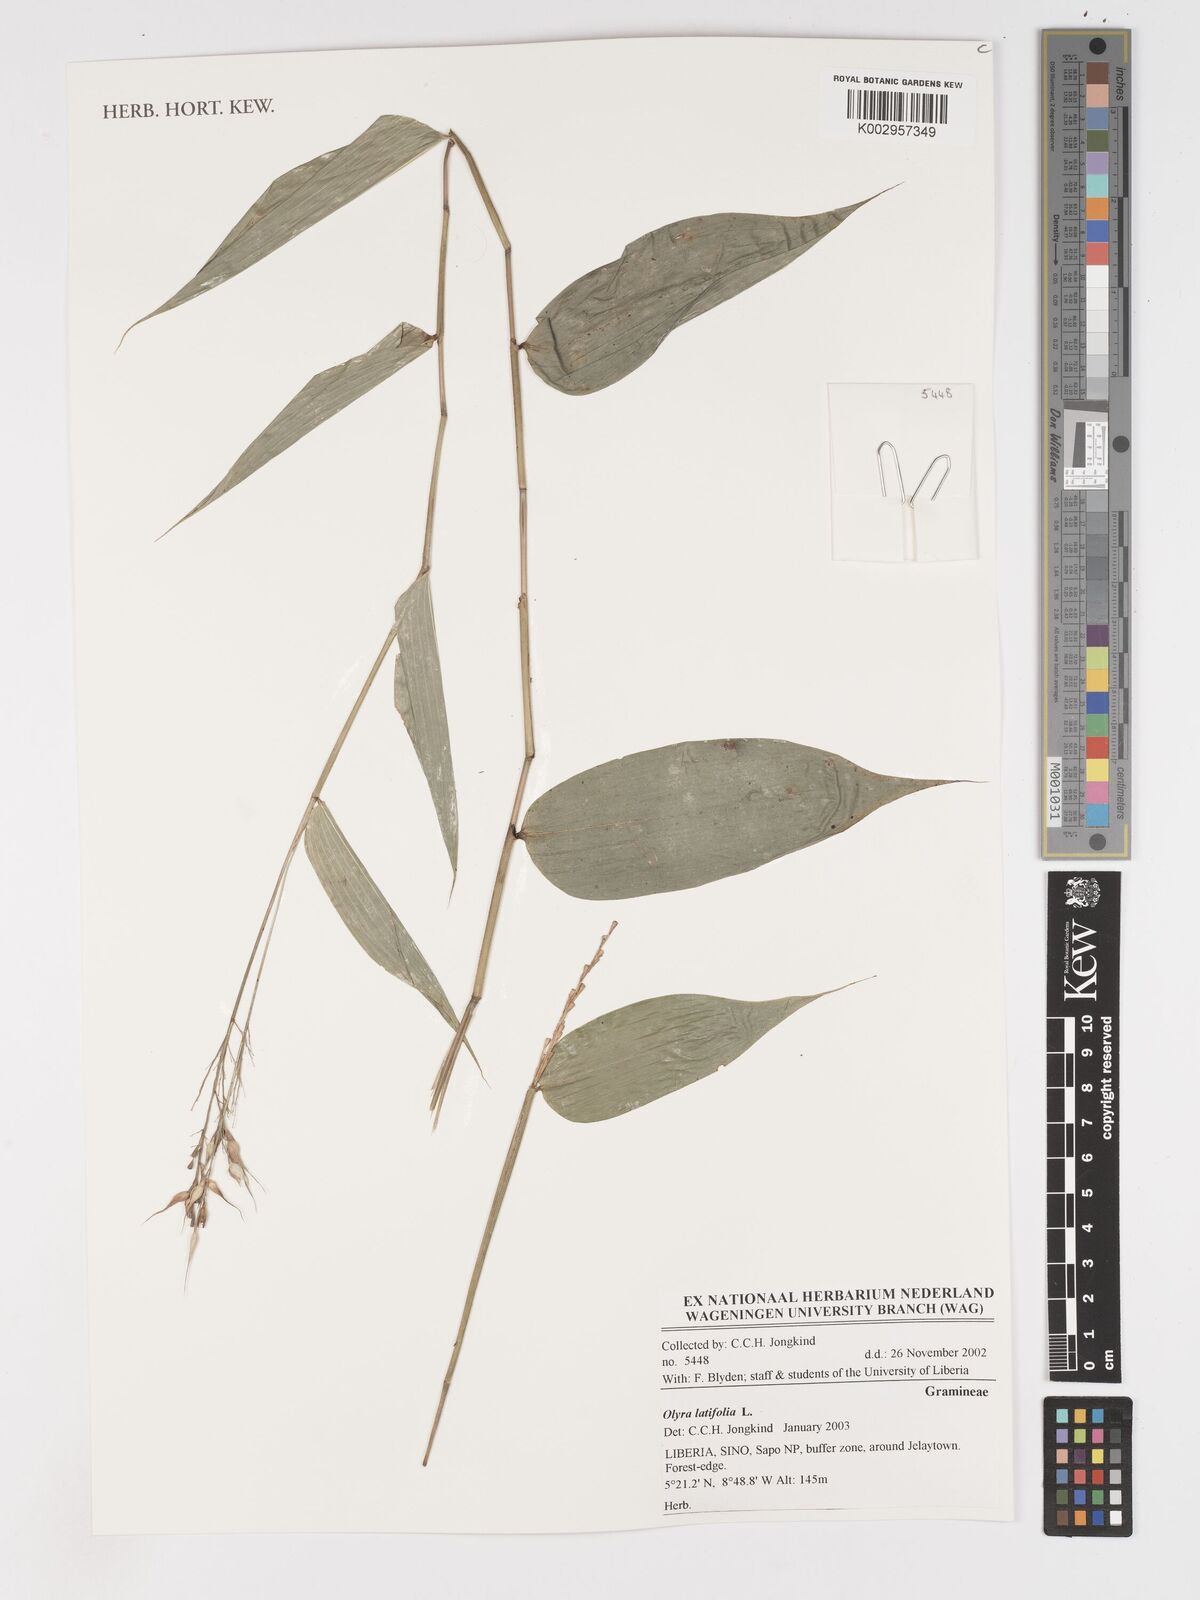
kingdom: Plantae
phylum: Tracheophyta
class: Liliopsida
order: Poales
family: Poaceae
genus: Olyra
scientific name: Olyra latifolia
